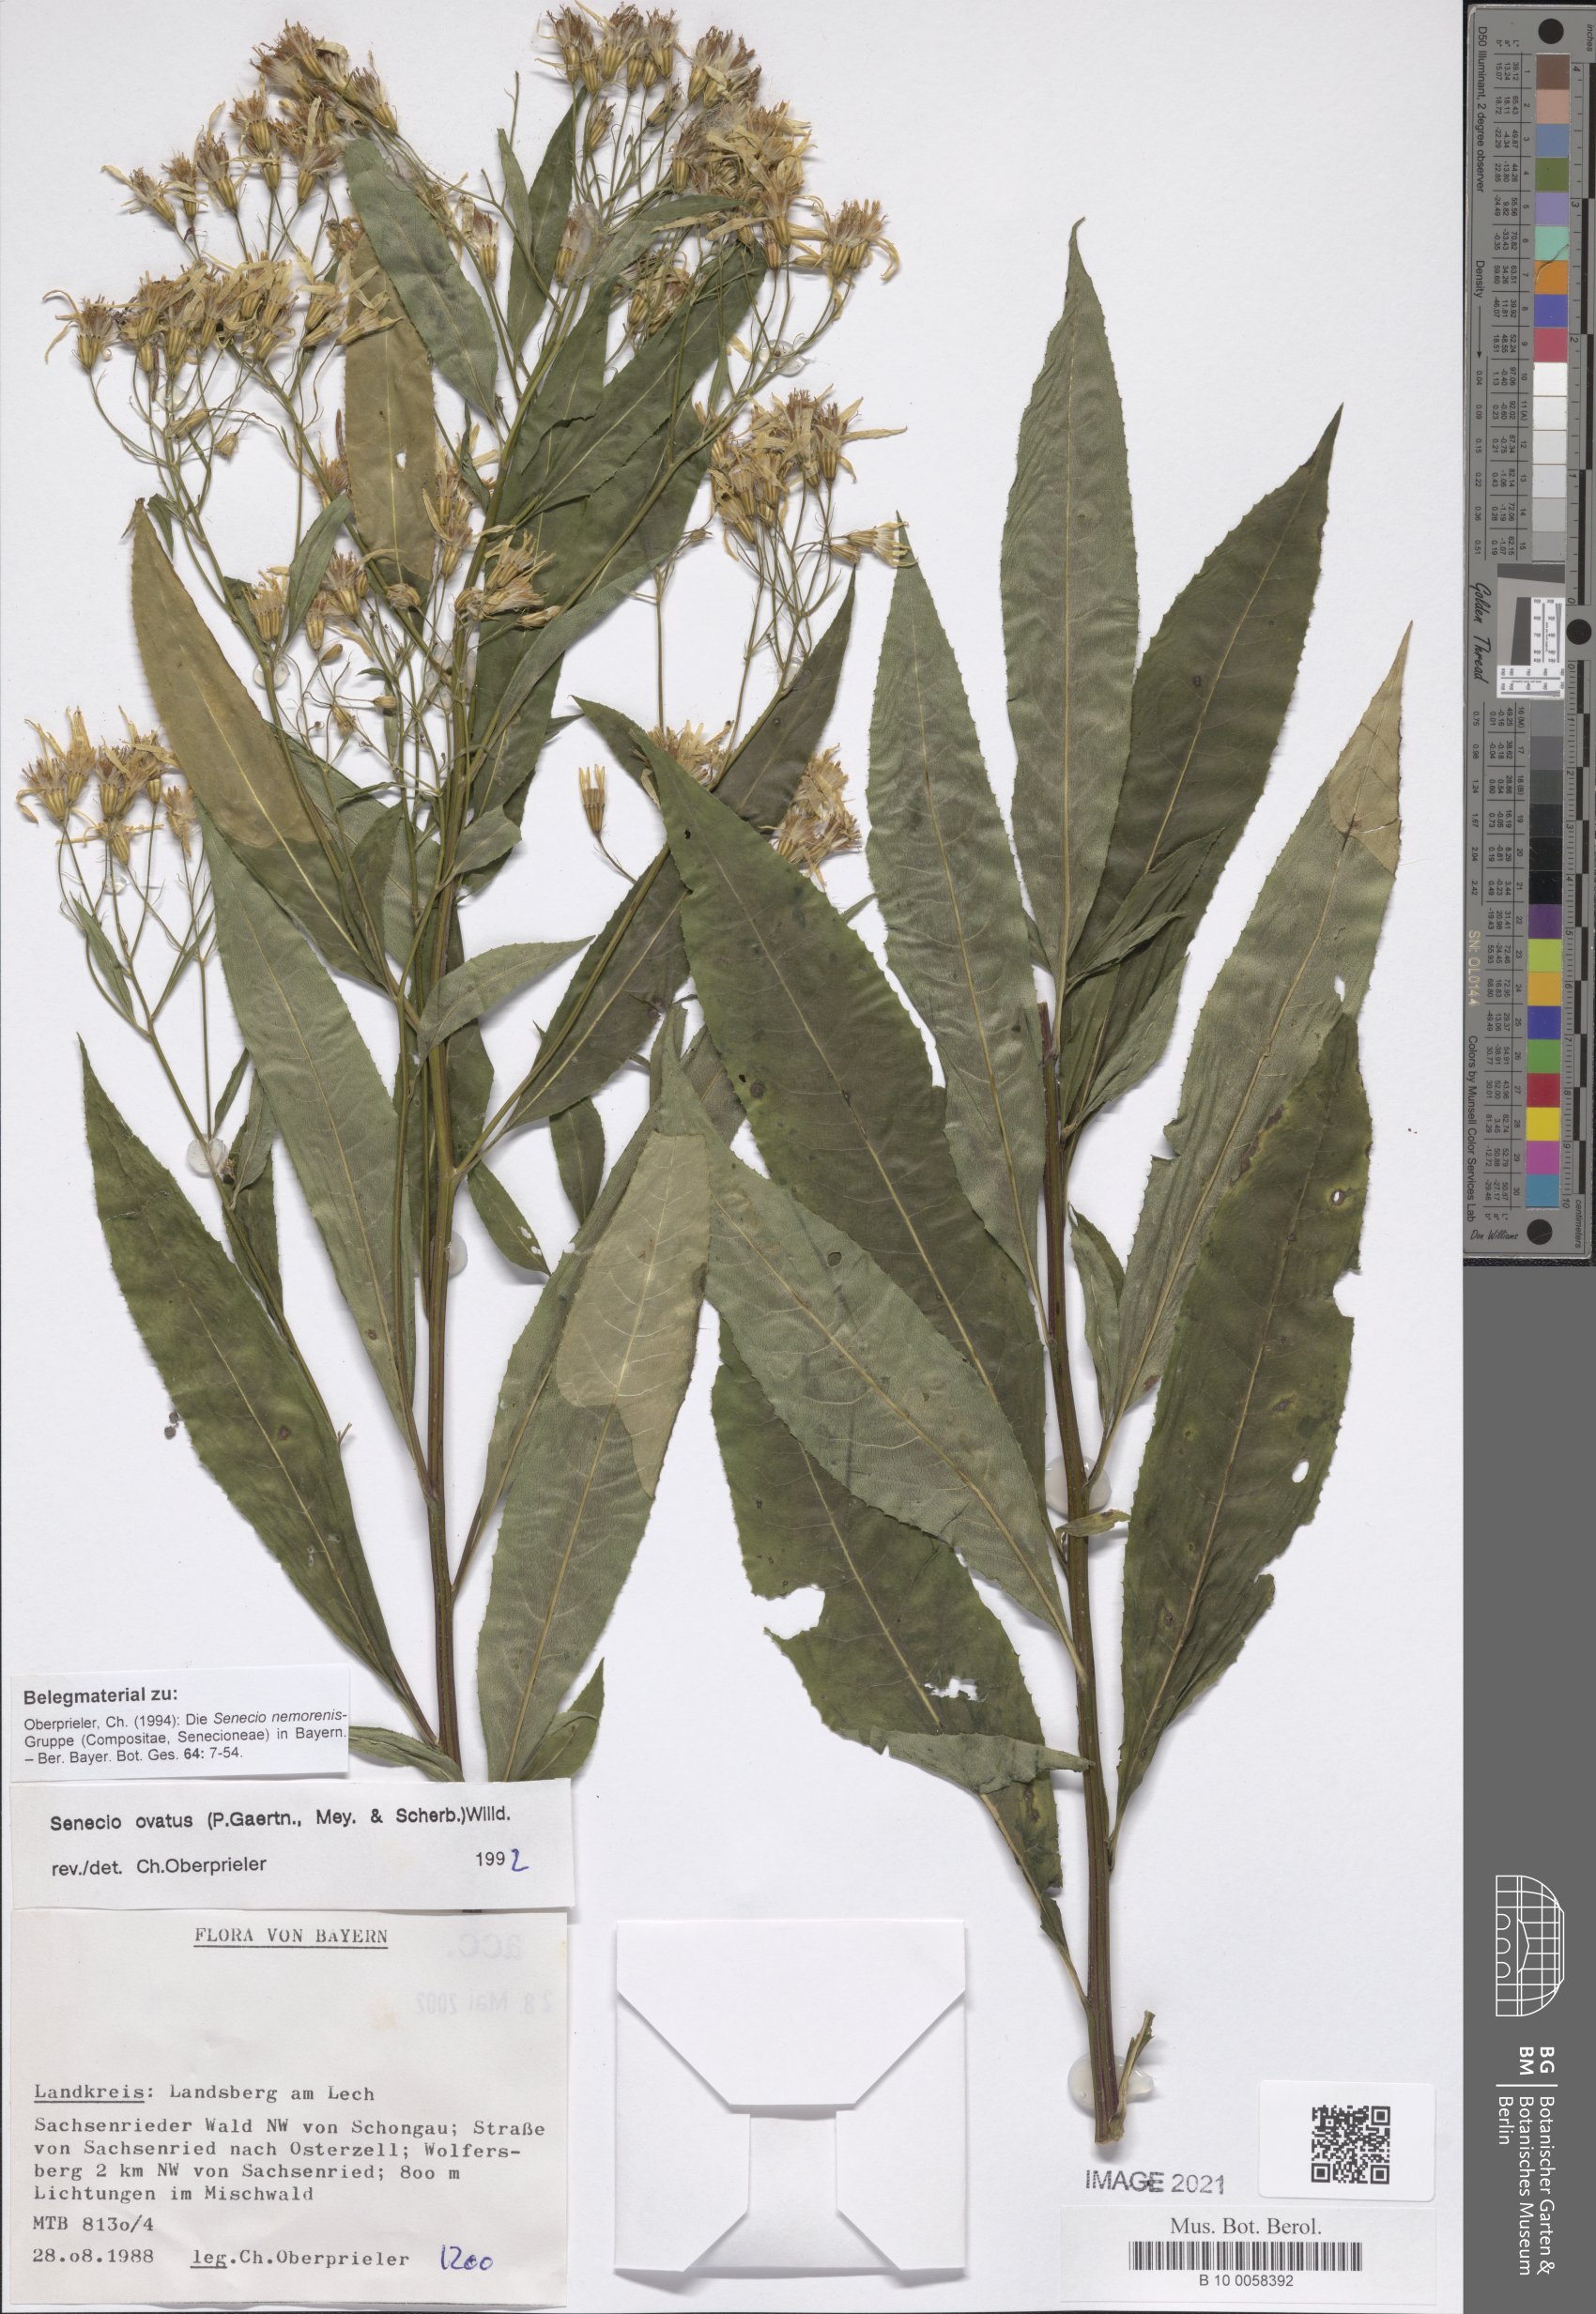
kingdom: Plantae
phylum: Tracheophyta
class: Magnoliopsida
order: Asterales
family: Asteraceae
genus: Senecio
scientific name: Senecio ovatus
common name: Wood ragwort
